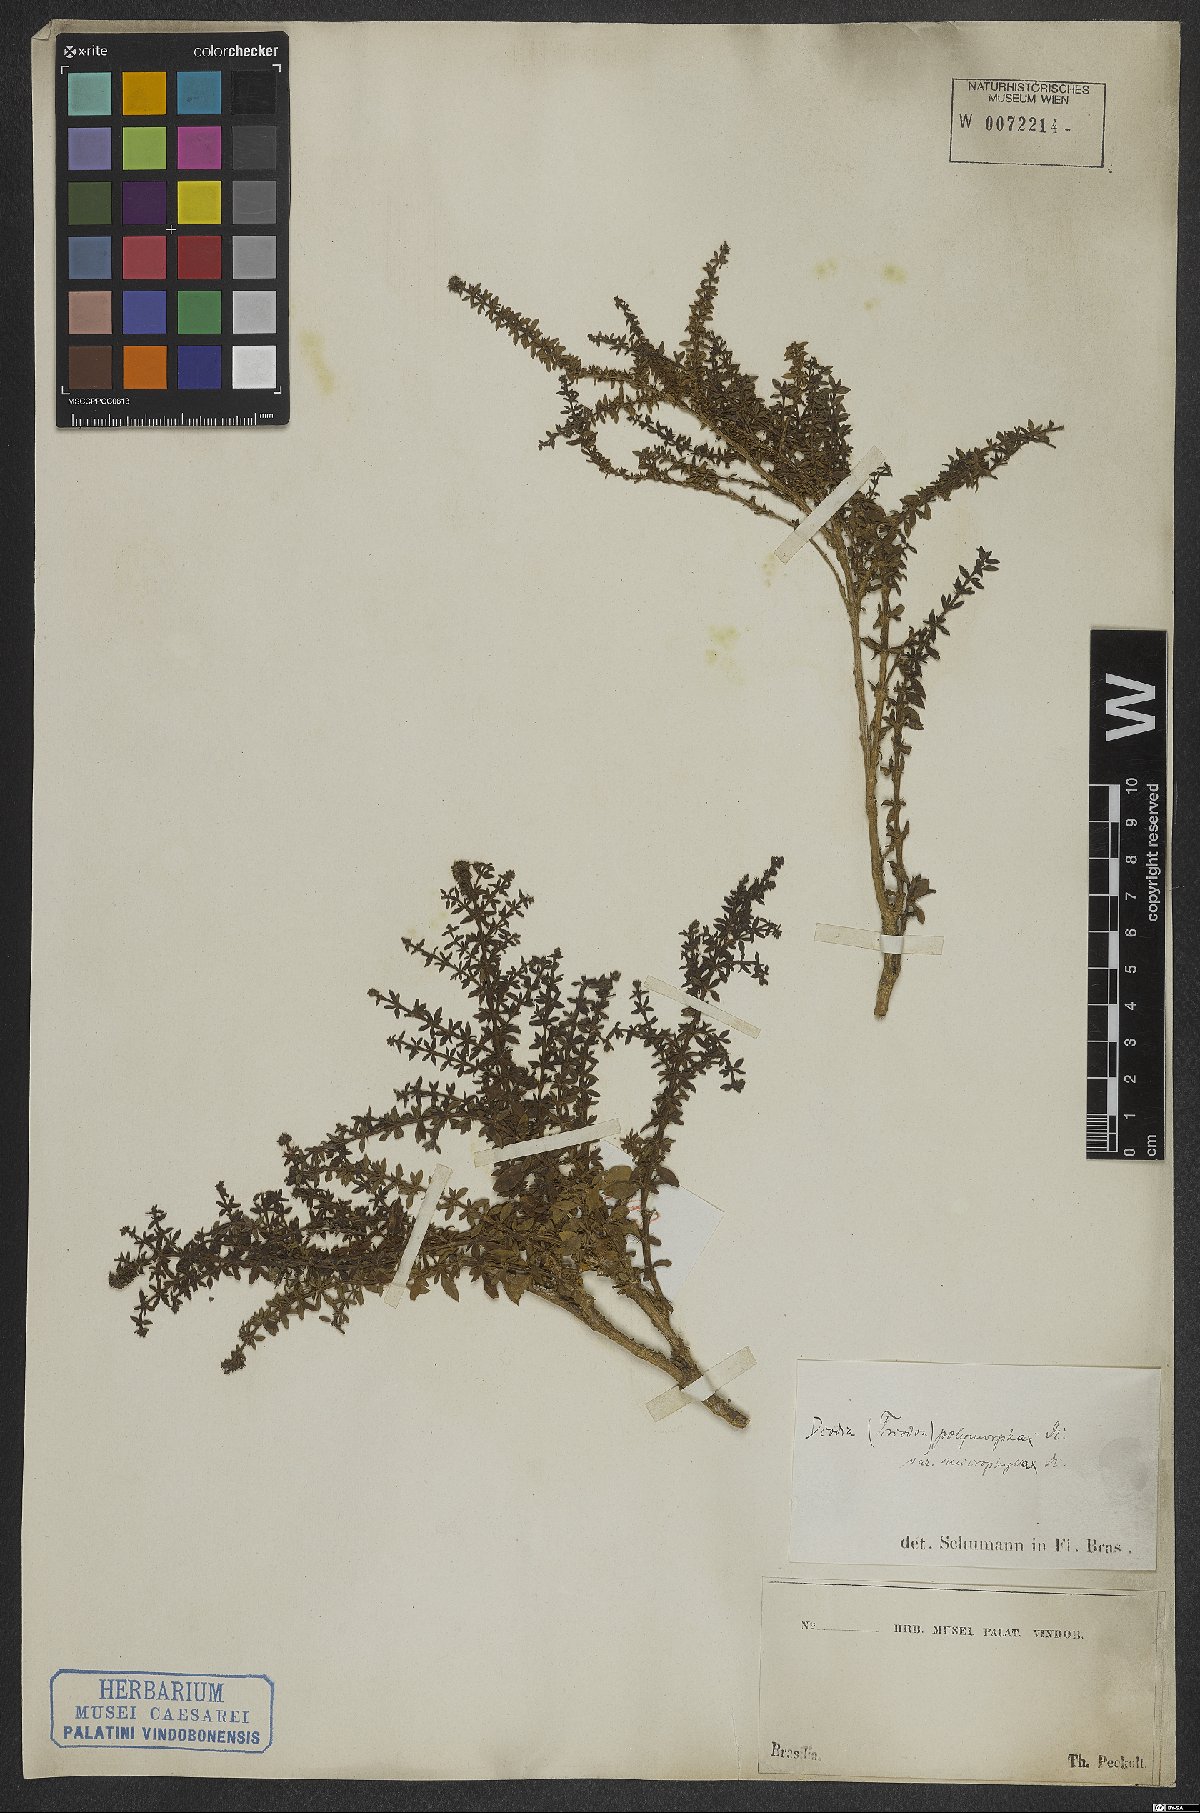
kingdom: Plantae
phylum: Tracheophyta
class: Magnoliopsida
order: Gentianales
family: Rubiaceae
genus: Galianthe
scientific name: Galianthe brasiliensis
